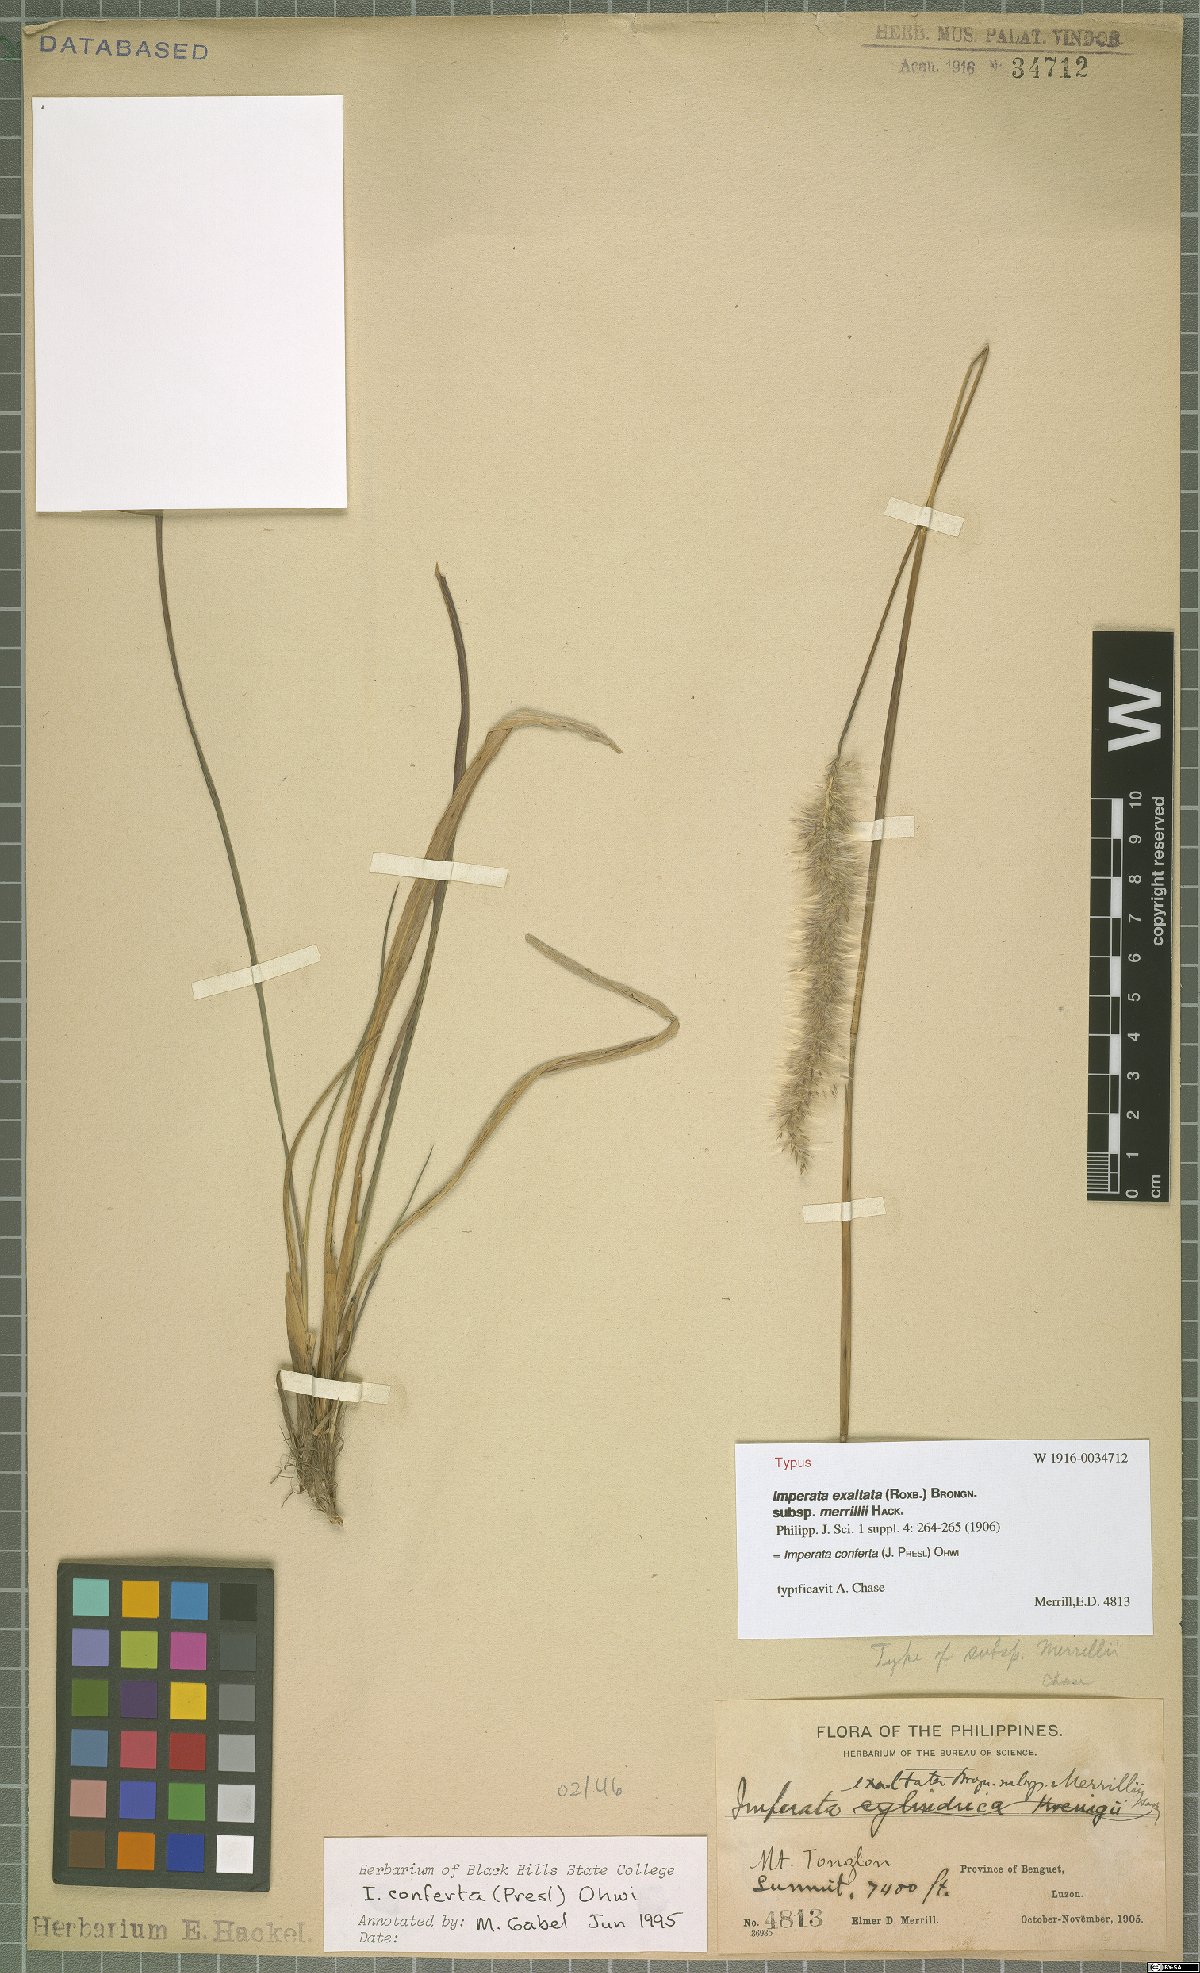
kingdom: Plantae
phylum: Tracheophyta
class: Liliopsida
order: Poales
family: Poaceae
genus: Imperata
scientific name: Imperata conferta
